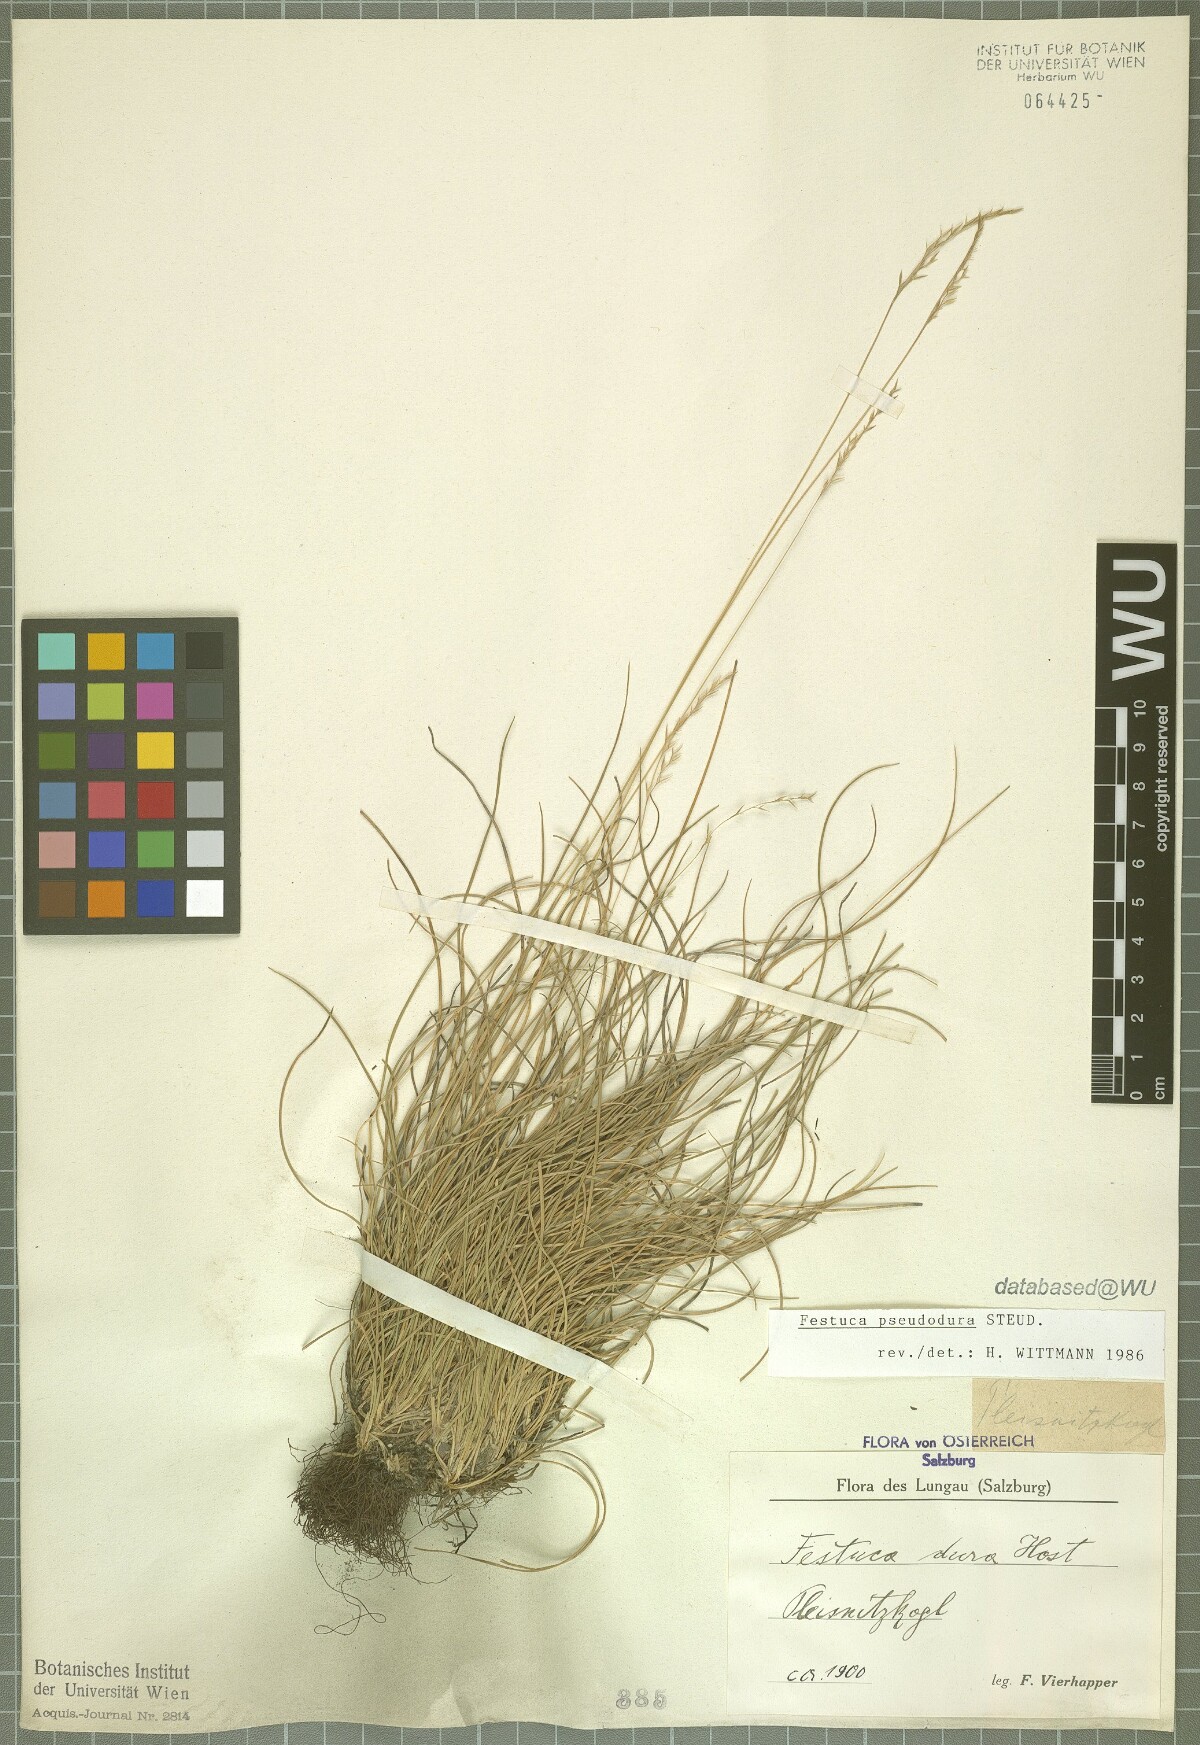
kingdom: Plantae
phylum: Tracheophyta
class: Liliopsida
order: Poales
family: Poaceae
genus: Festuca
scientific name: Festuca pseudodura
